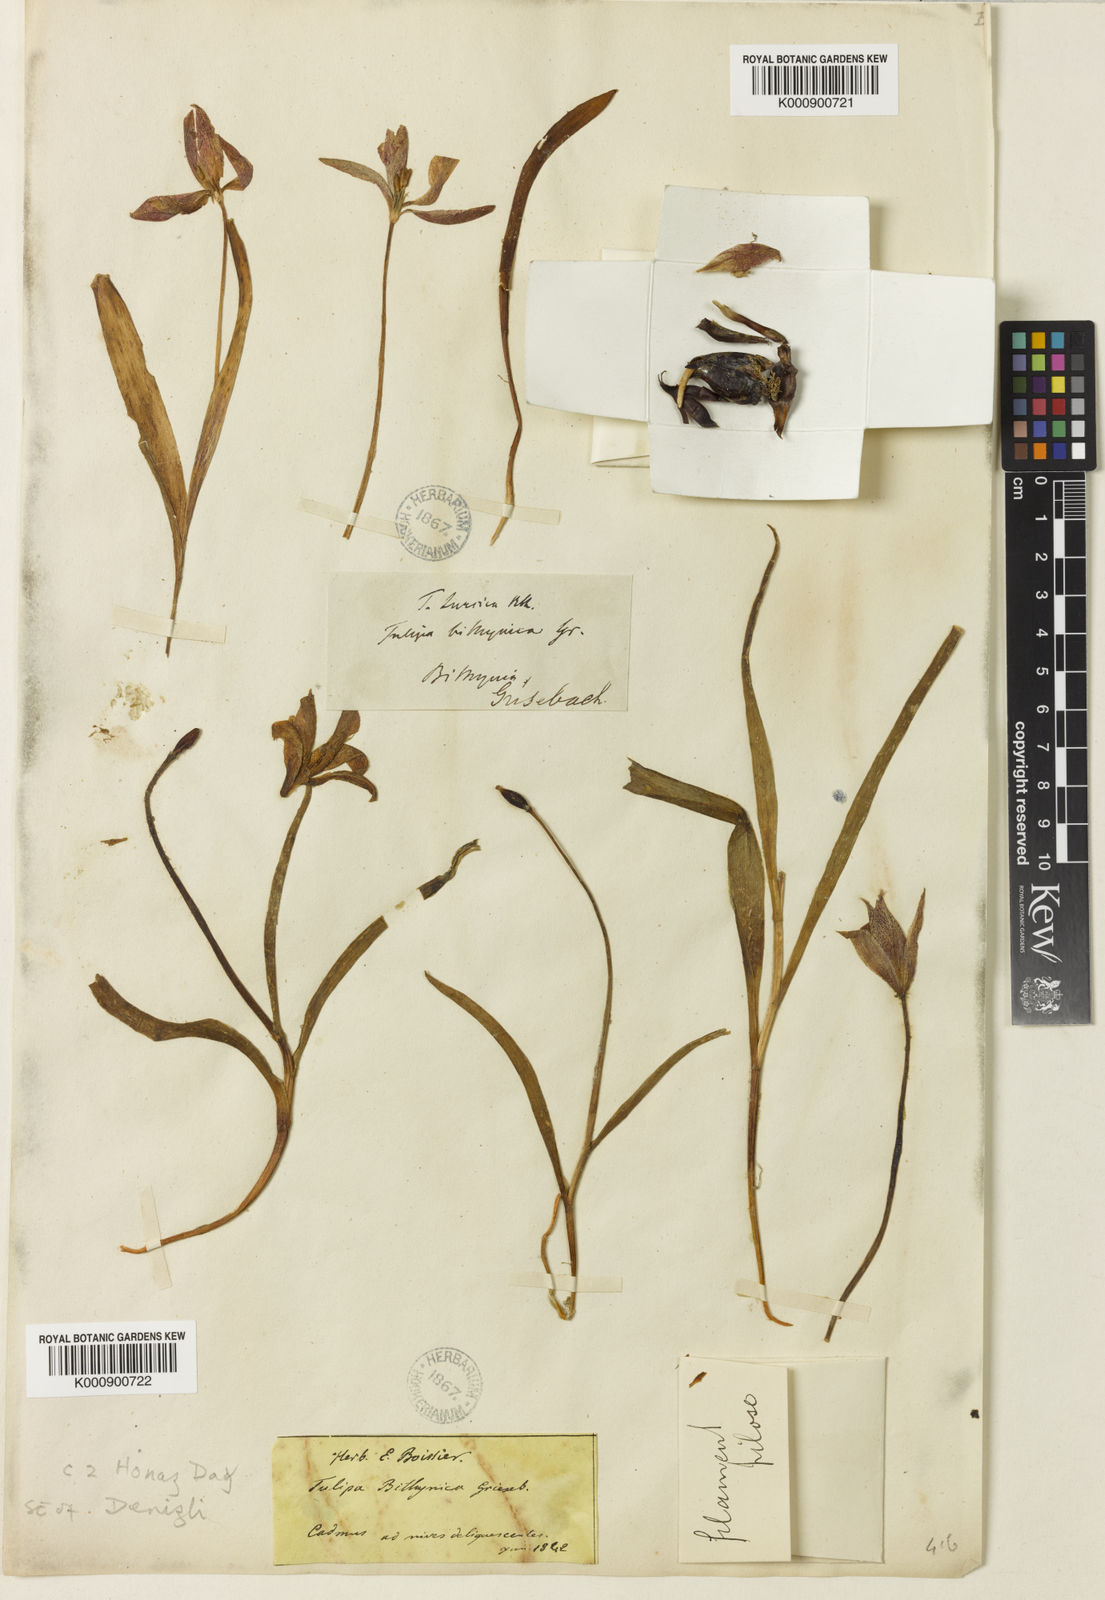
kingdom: Plantae
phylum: Tracheophyta
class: Liliopsida
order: Liliales
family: Liliaceae
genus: Tulipa
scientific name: Tulipa orphanidea
